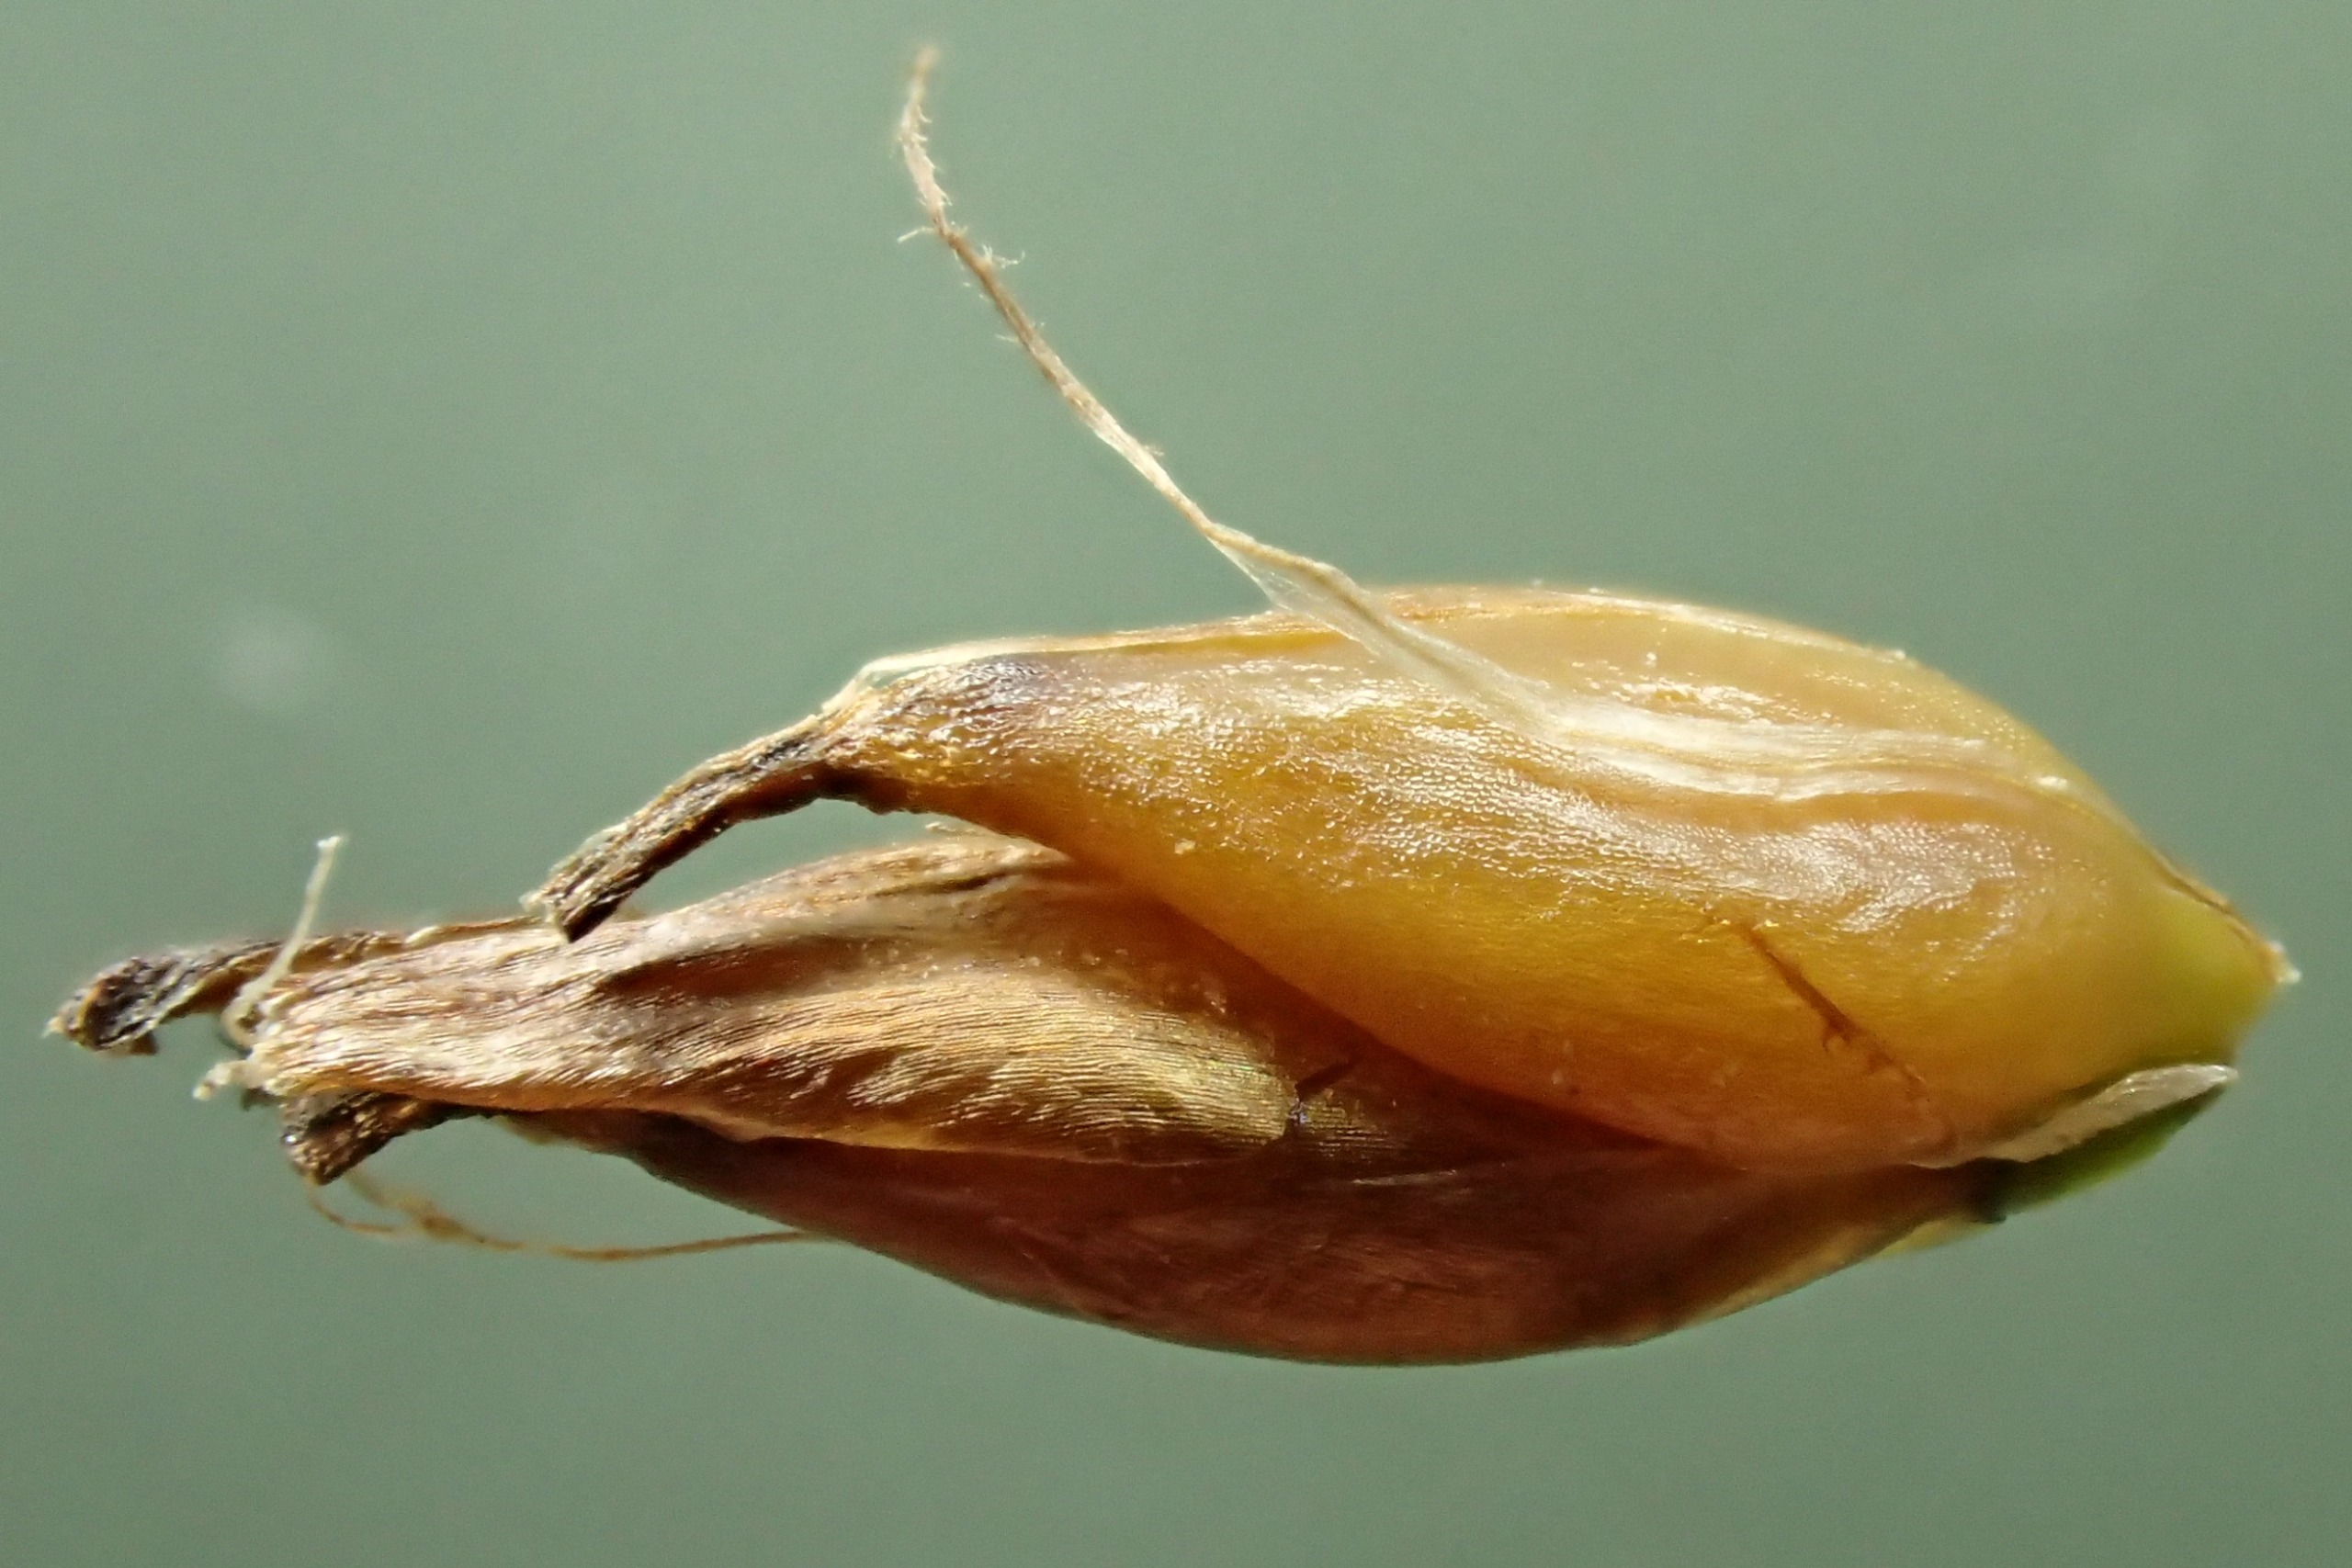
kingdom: Plantae
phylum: Tracheophyta
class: Liliopsida
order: Poales
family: Cyperaceae
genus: Blysmus
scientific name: Blysmus rufus
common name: Rødbrun kogleaks
